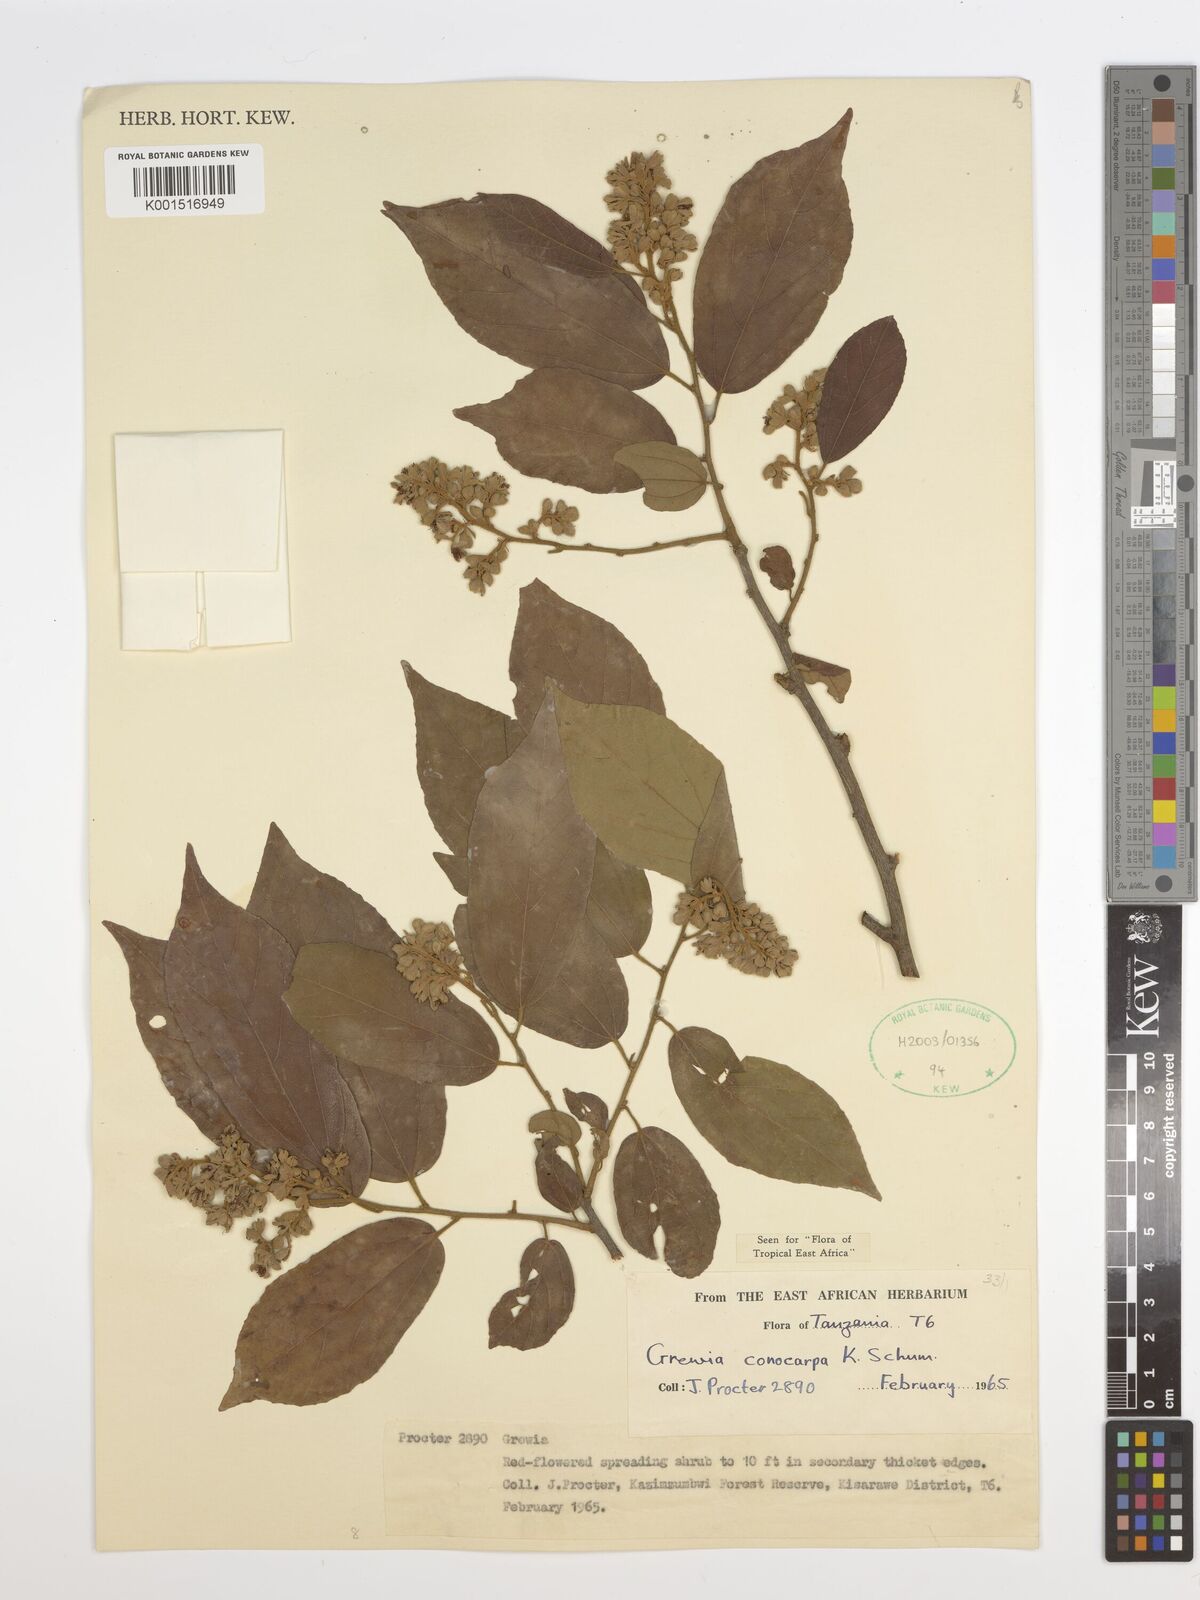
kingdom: Plantae
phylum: Tracheophyta
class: Magnoliopsida
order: Malvales
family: Malvaceae
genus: Microcos
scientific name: Microcos conocarpa
